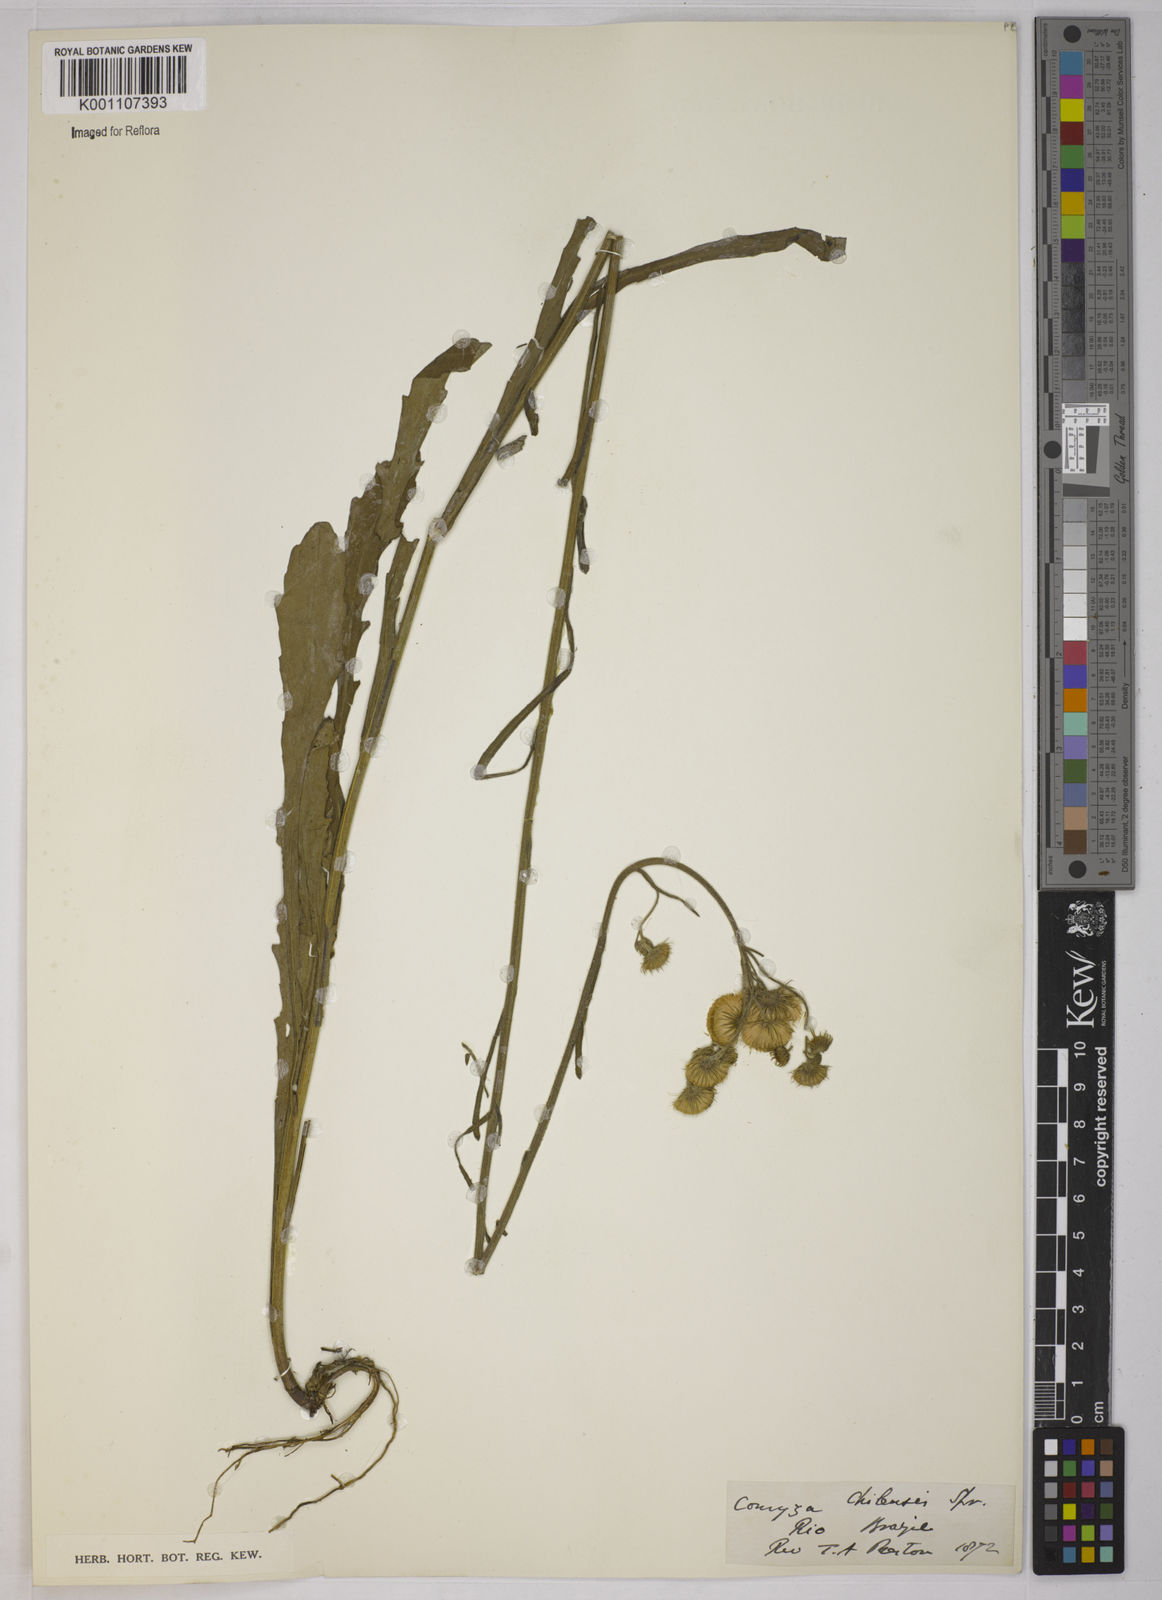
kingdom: Plantae
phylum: Tracheophyta
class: Magnoliopsida
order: Asterales
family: Asteraceae
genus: Conyza
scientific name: Conyza
